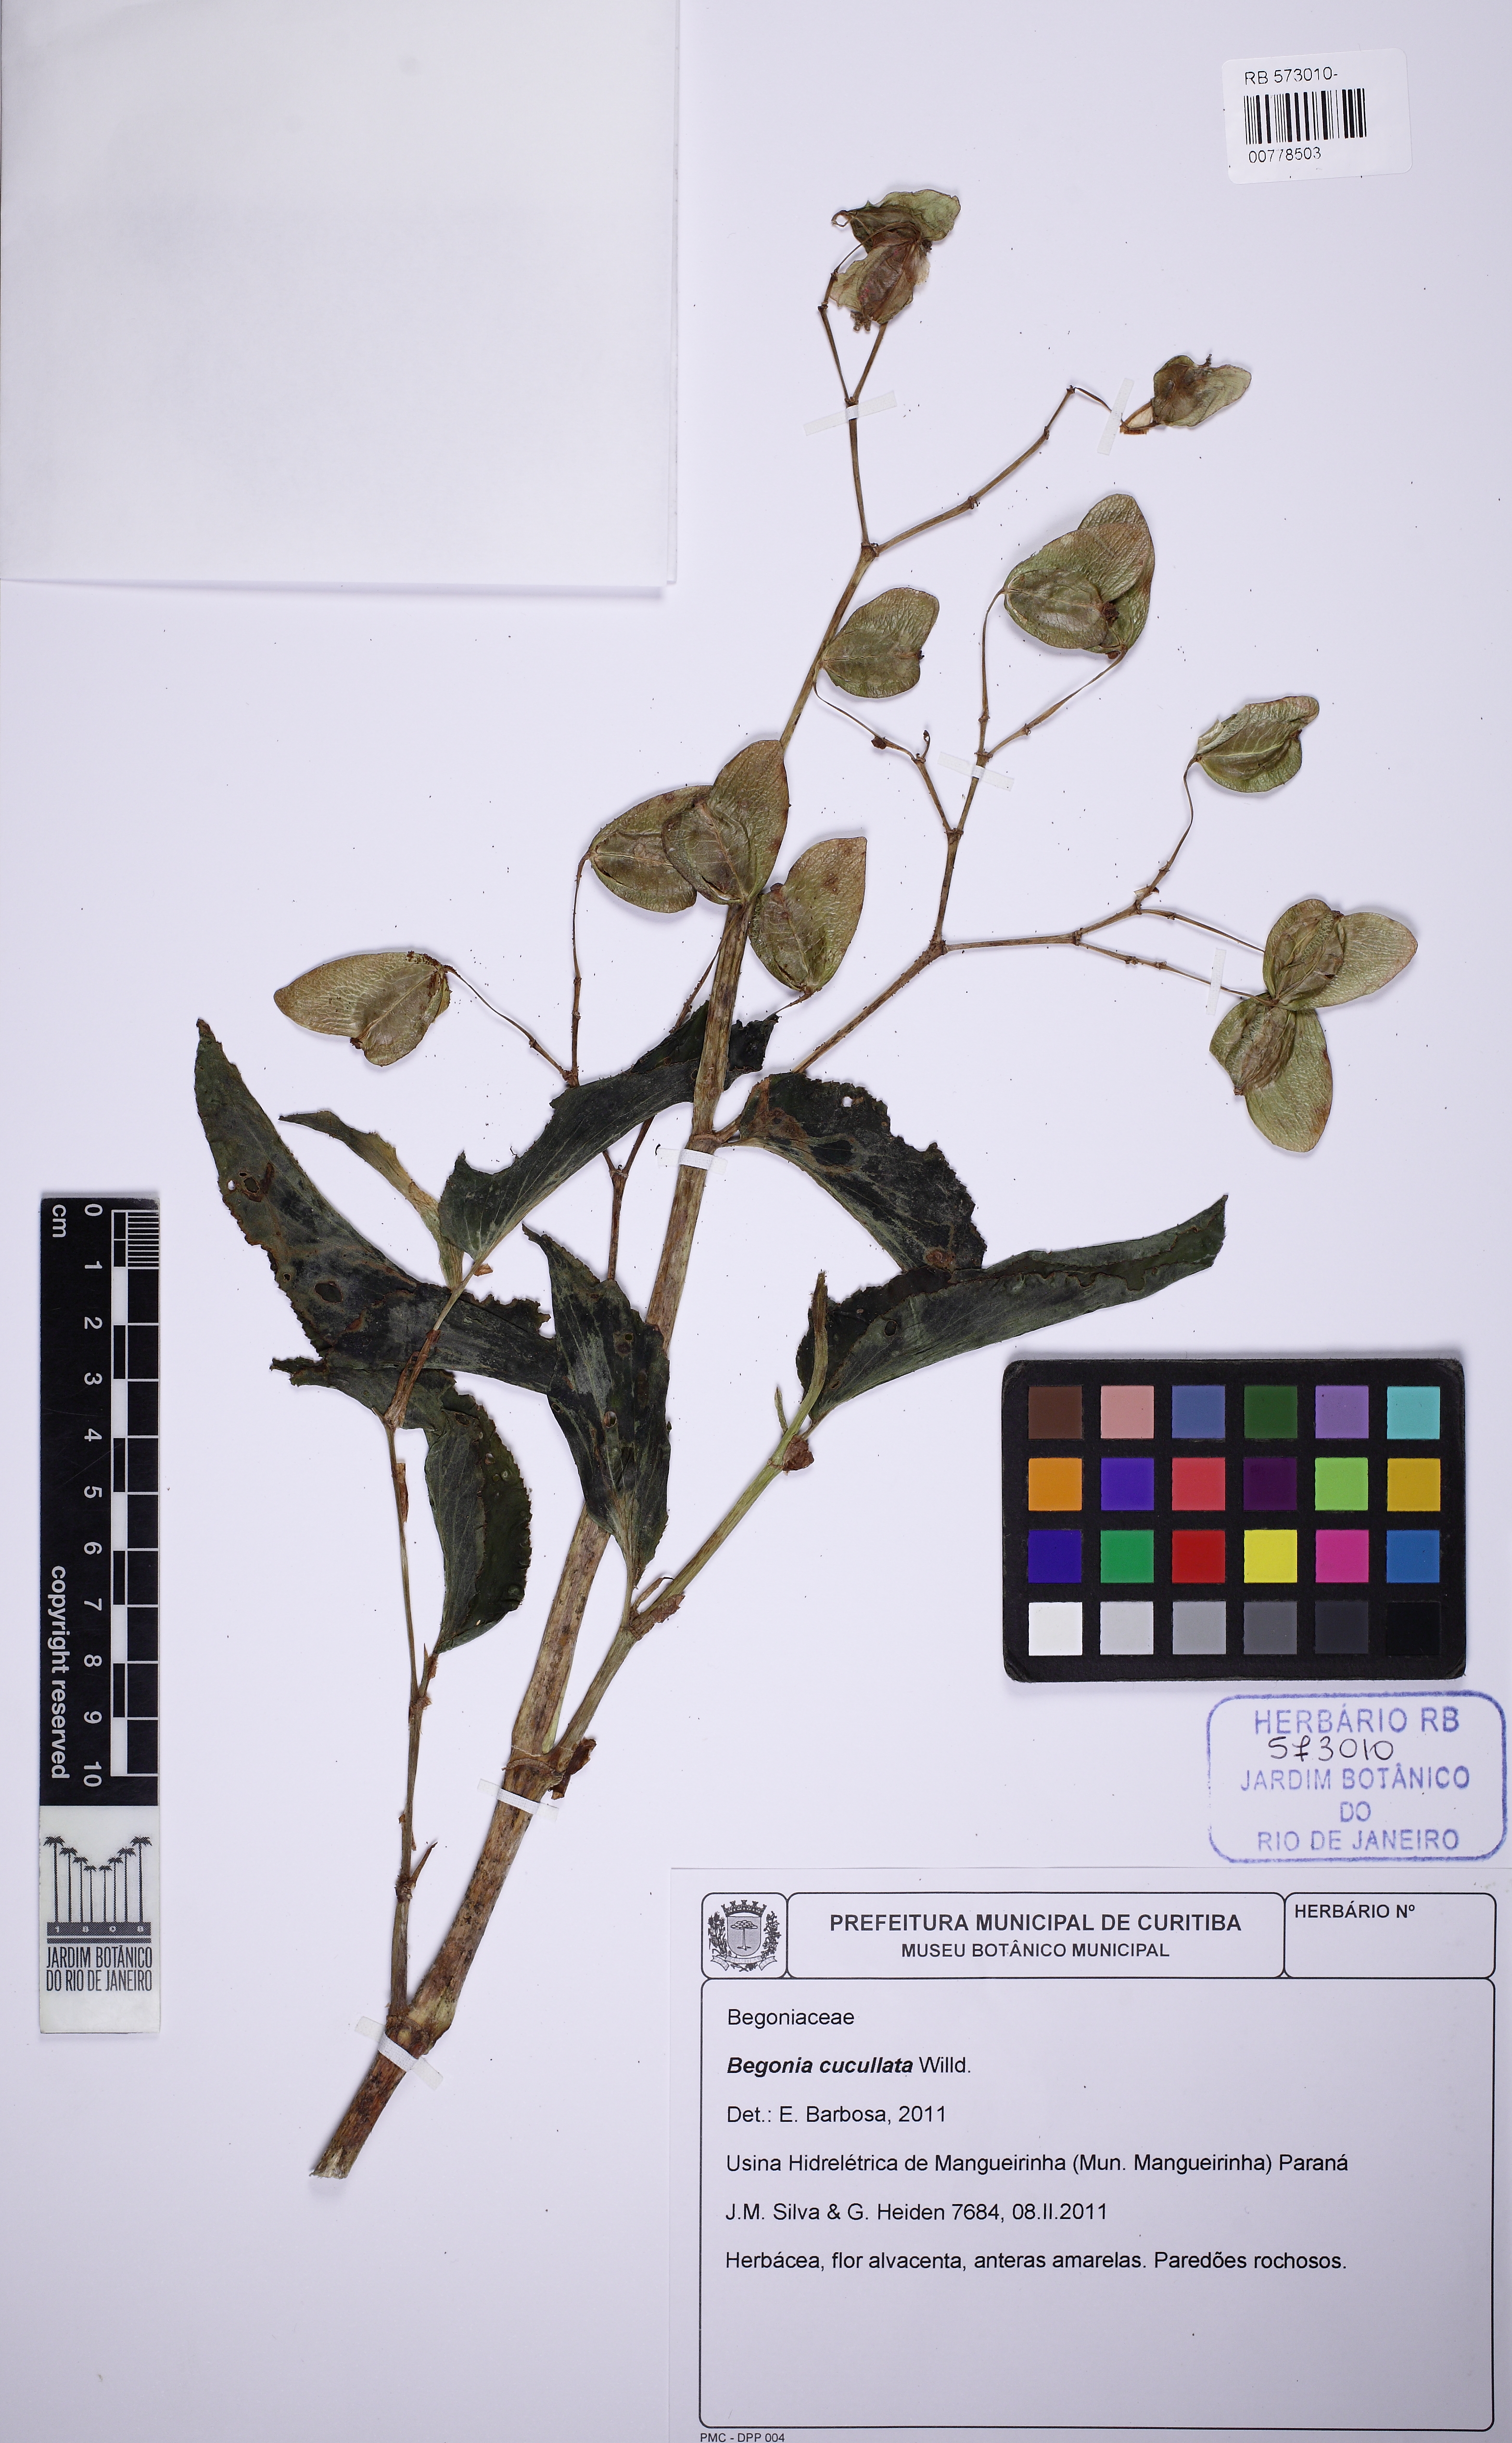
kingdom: Plantae
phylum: Tracheophyta
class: Magnoliopsida
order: Cucurbitales
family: Begoniaceae
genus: Begonia
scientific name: Begonia cucullata
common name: Clubbed begonia
